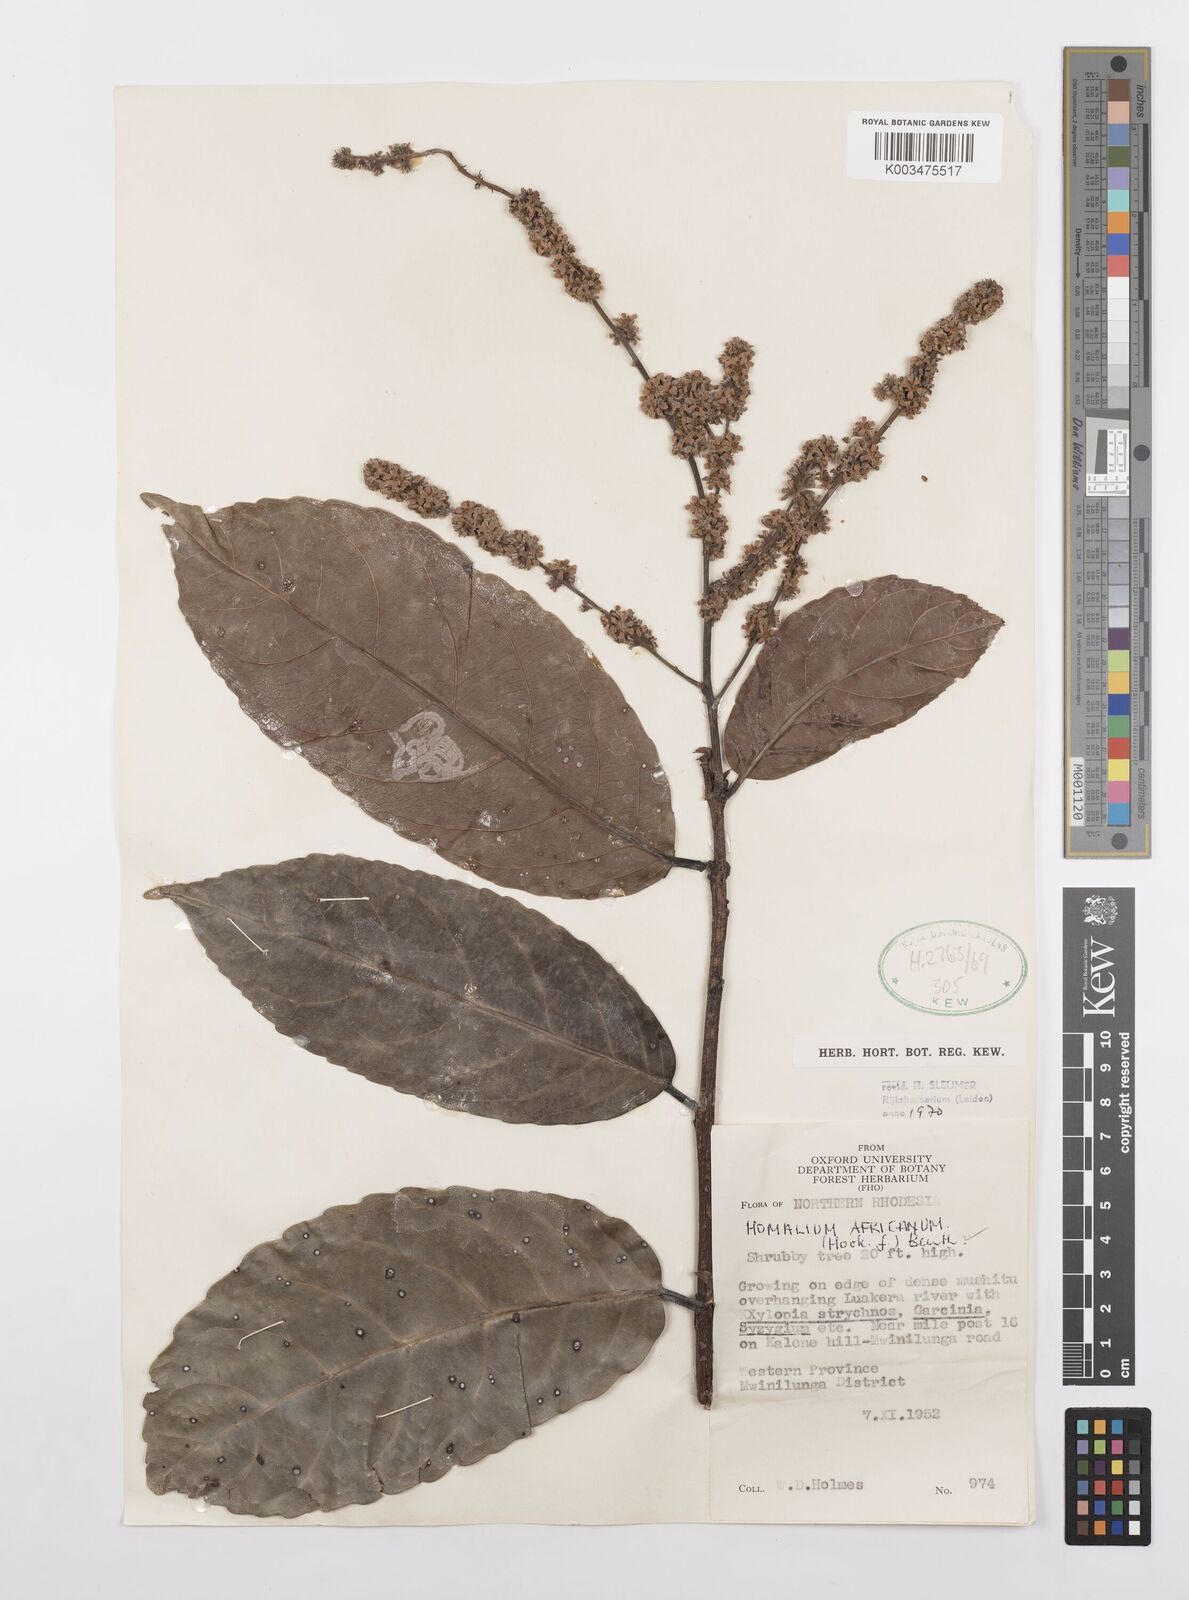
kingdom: Plantae
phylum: Tracheophyta
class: Magnoliopsida
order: Malpighiales
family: Salicaceae
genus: Homalium
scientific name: Homalium africanum
